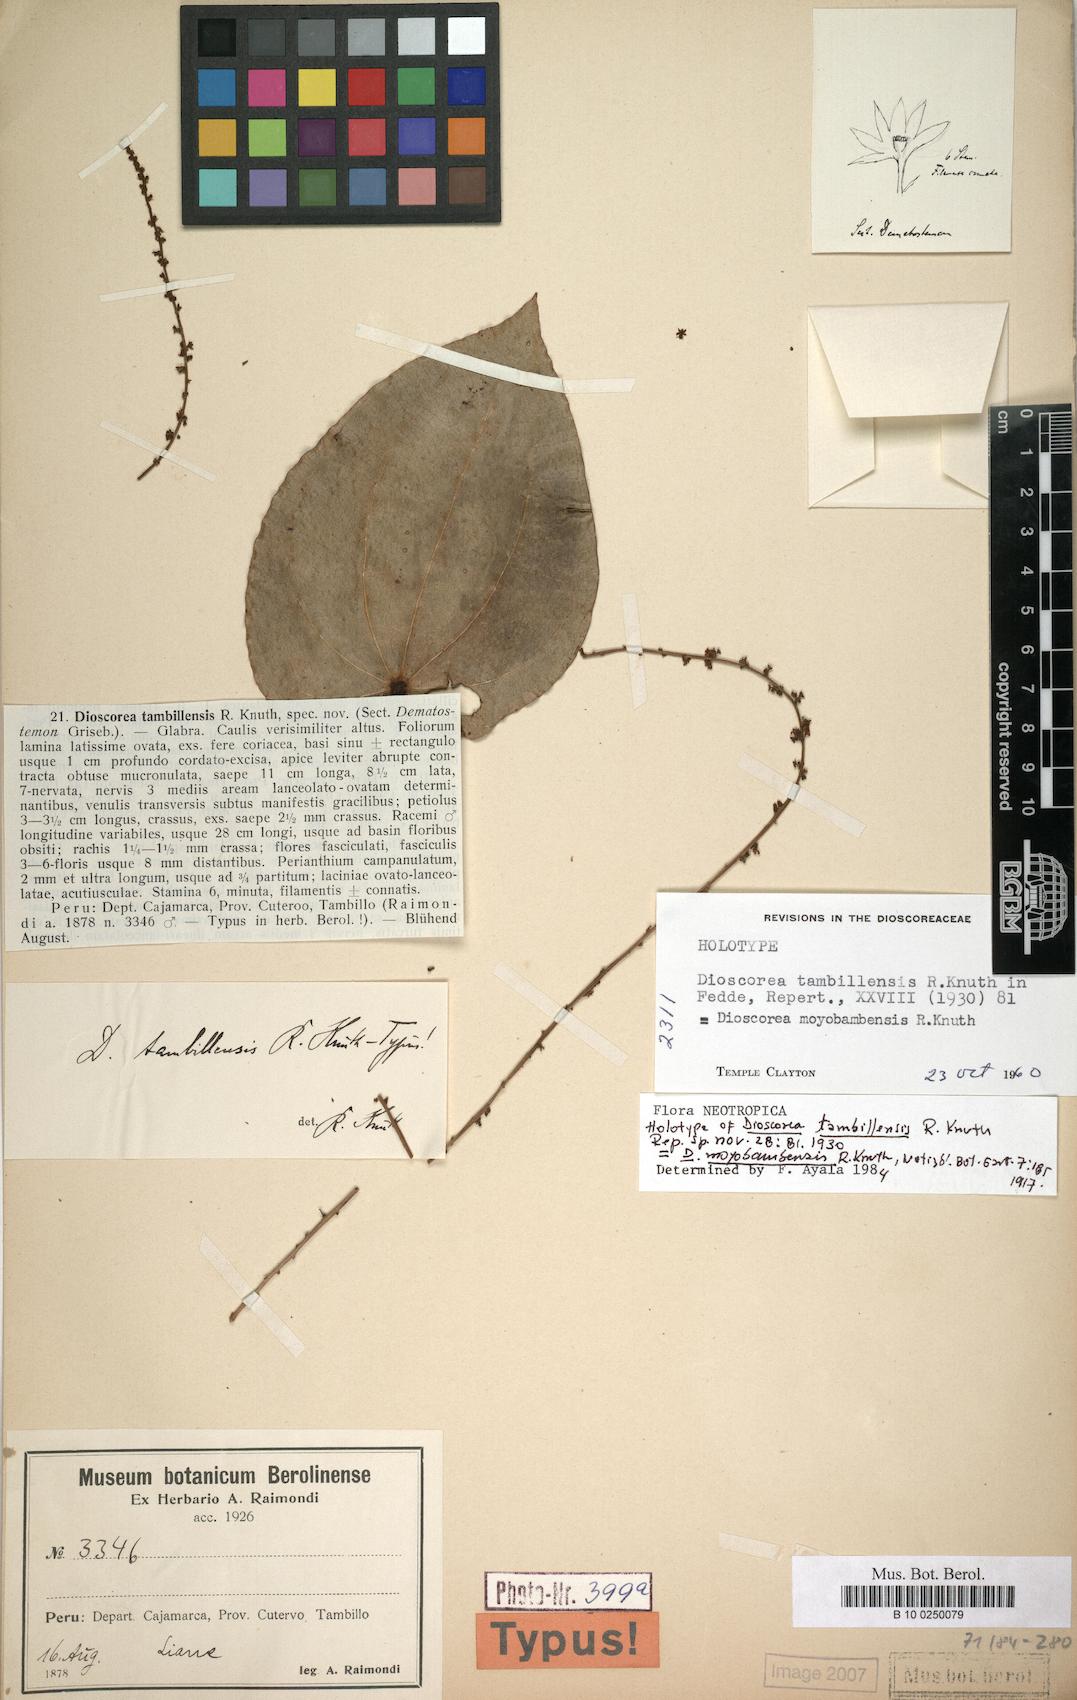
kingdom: Plantae
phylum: Tracheophyta
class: Liliopsida
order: Dioscoreales
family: Dioscoreaceae
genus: Dioscorea
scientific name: Dioscorea moyobambensis
